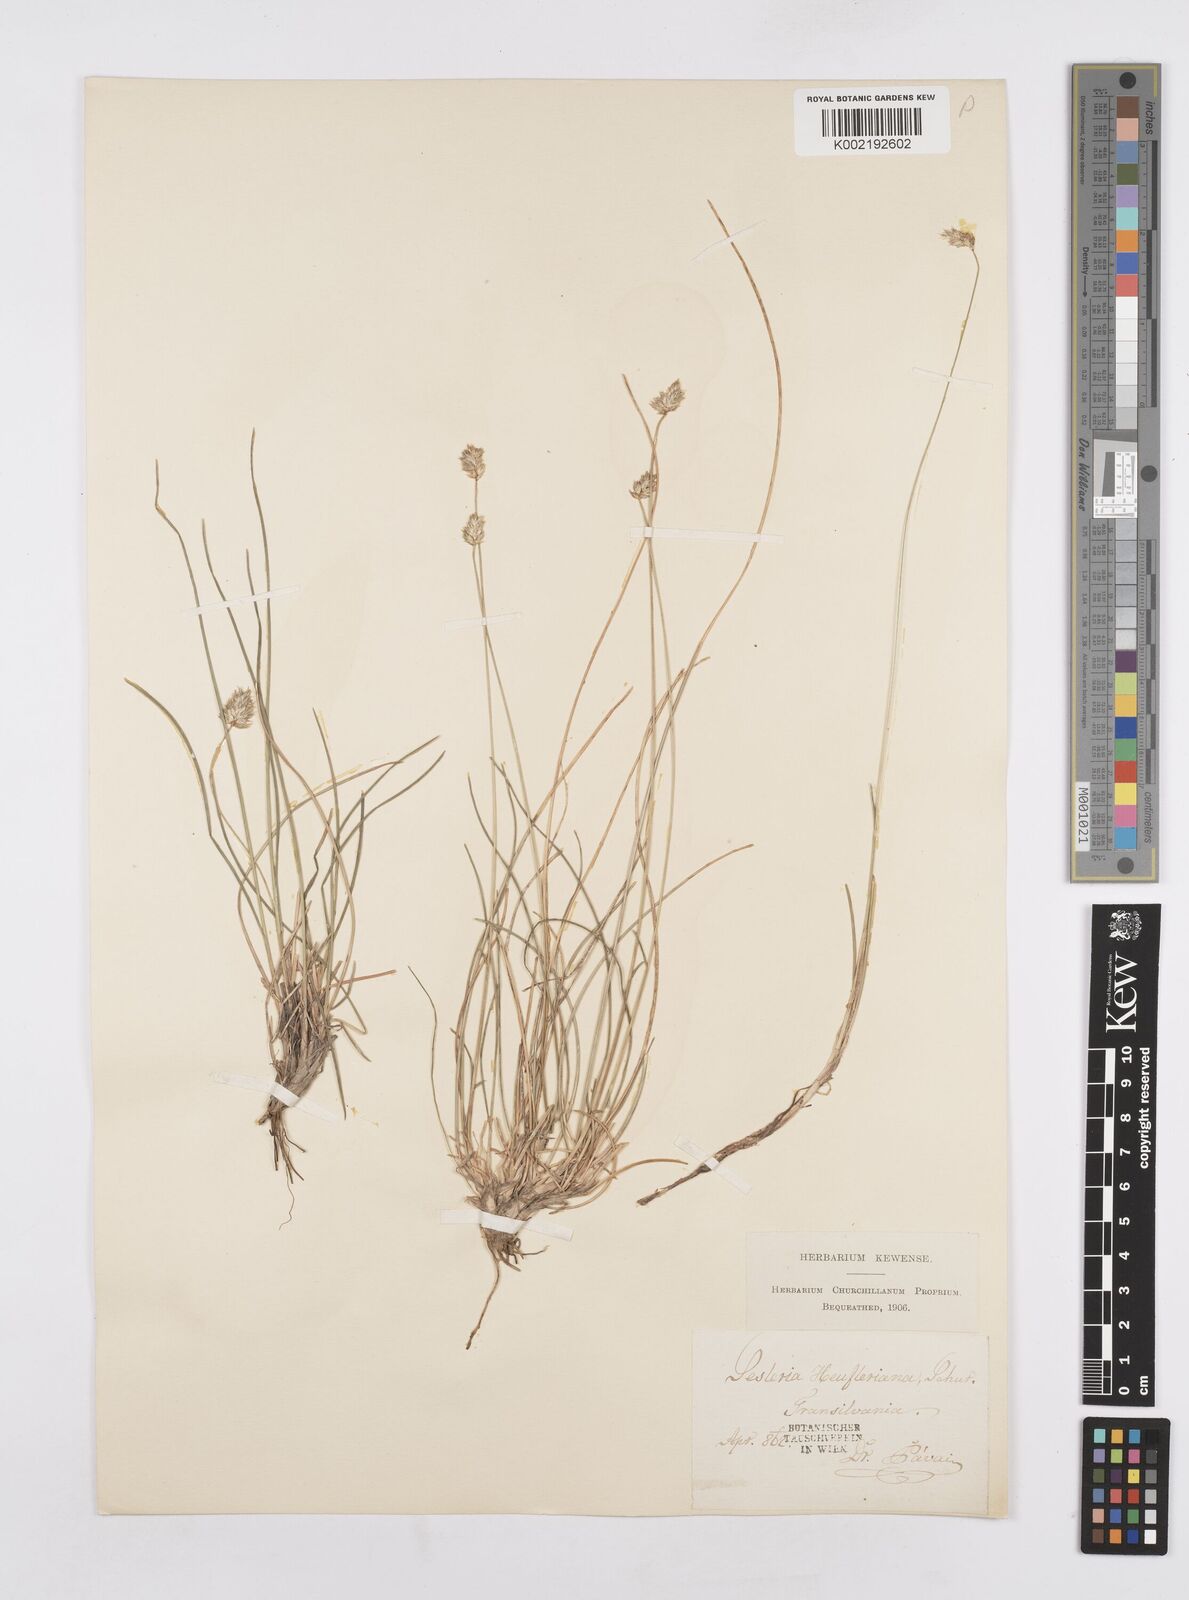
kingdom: Plantae
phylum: Tracheophyta
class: Liliopsida
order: Poales
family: Poaceae
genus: Sesleria
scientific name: Sesleria heufleriana
